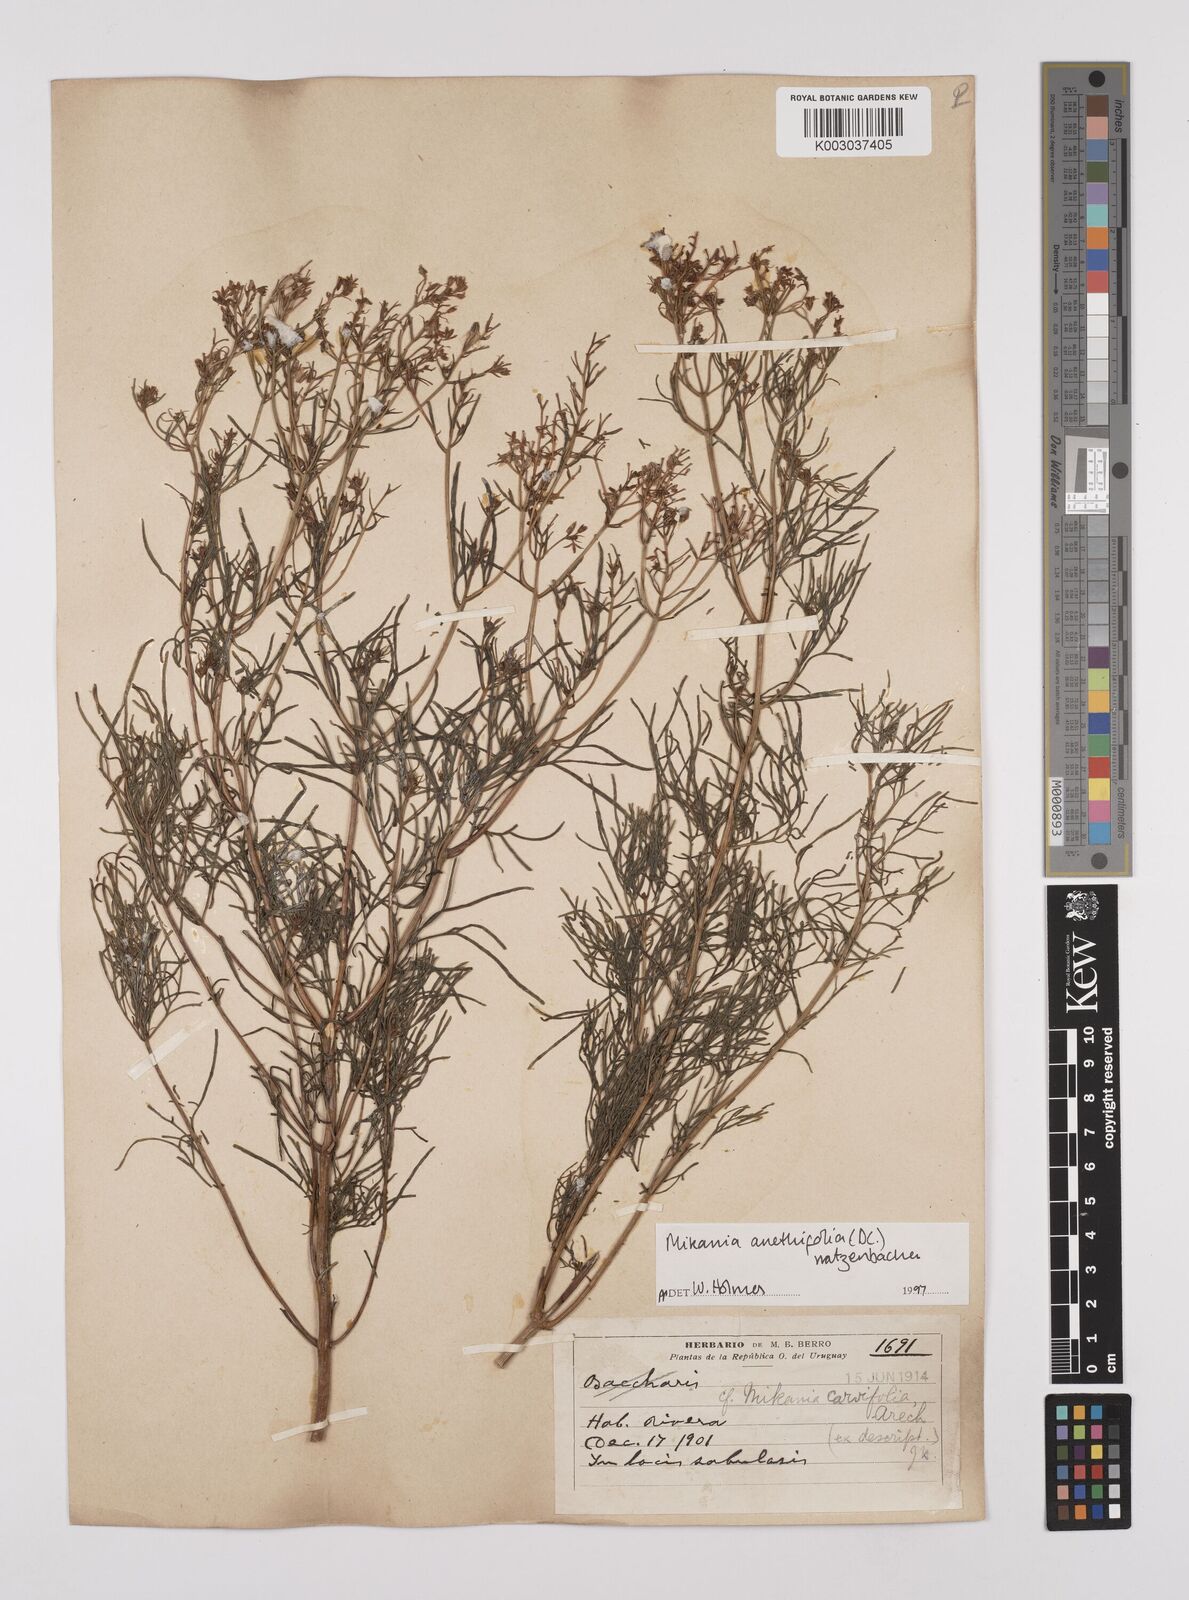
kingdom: Plantae
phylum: Tracheophyta
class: Magnoliopsida
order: Asterales
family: Asteraceae
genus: Mikania
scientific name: Mikania anethifolia
